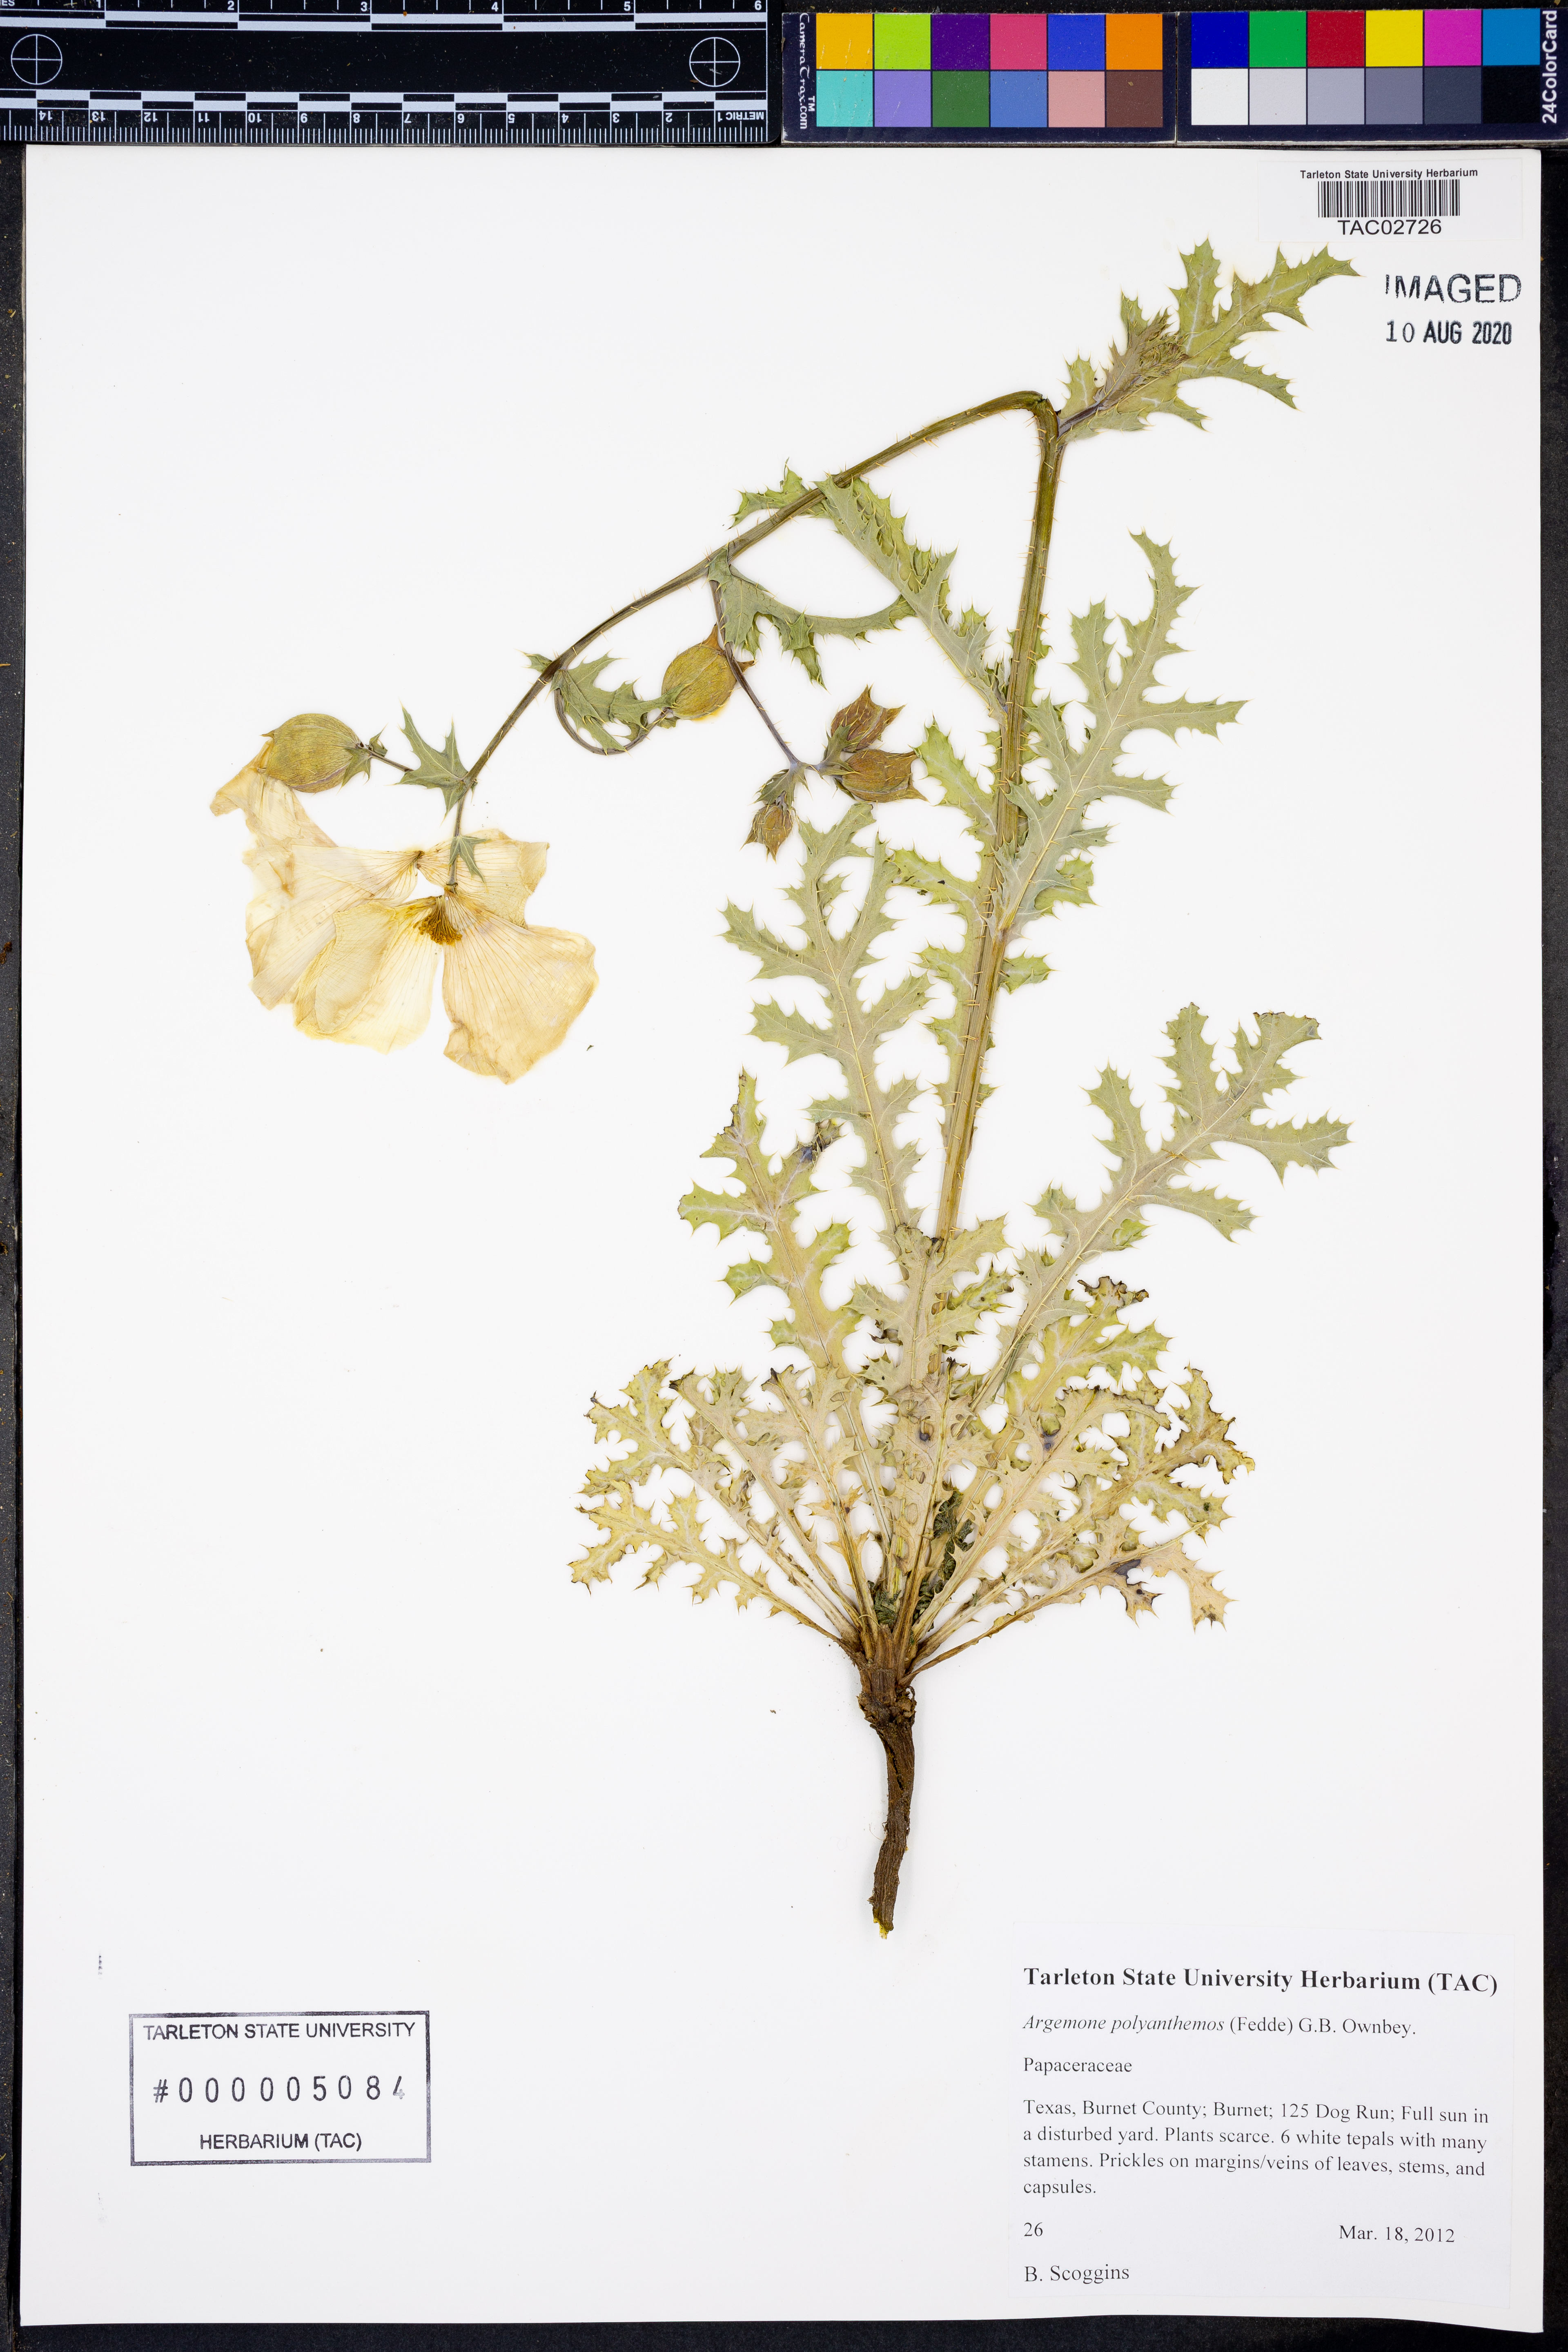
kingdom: Plantae
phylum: Tracheophyta
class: Magnoliopsida
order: Ranunculales
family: Papaveraceae
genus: Argemone
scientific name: Argemone polyanthemos
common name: Plains prickly-poppy
